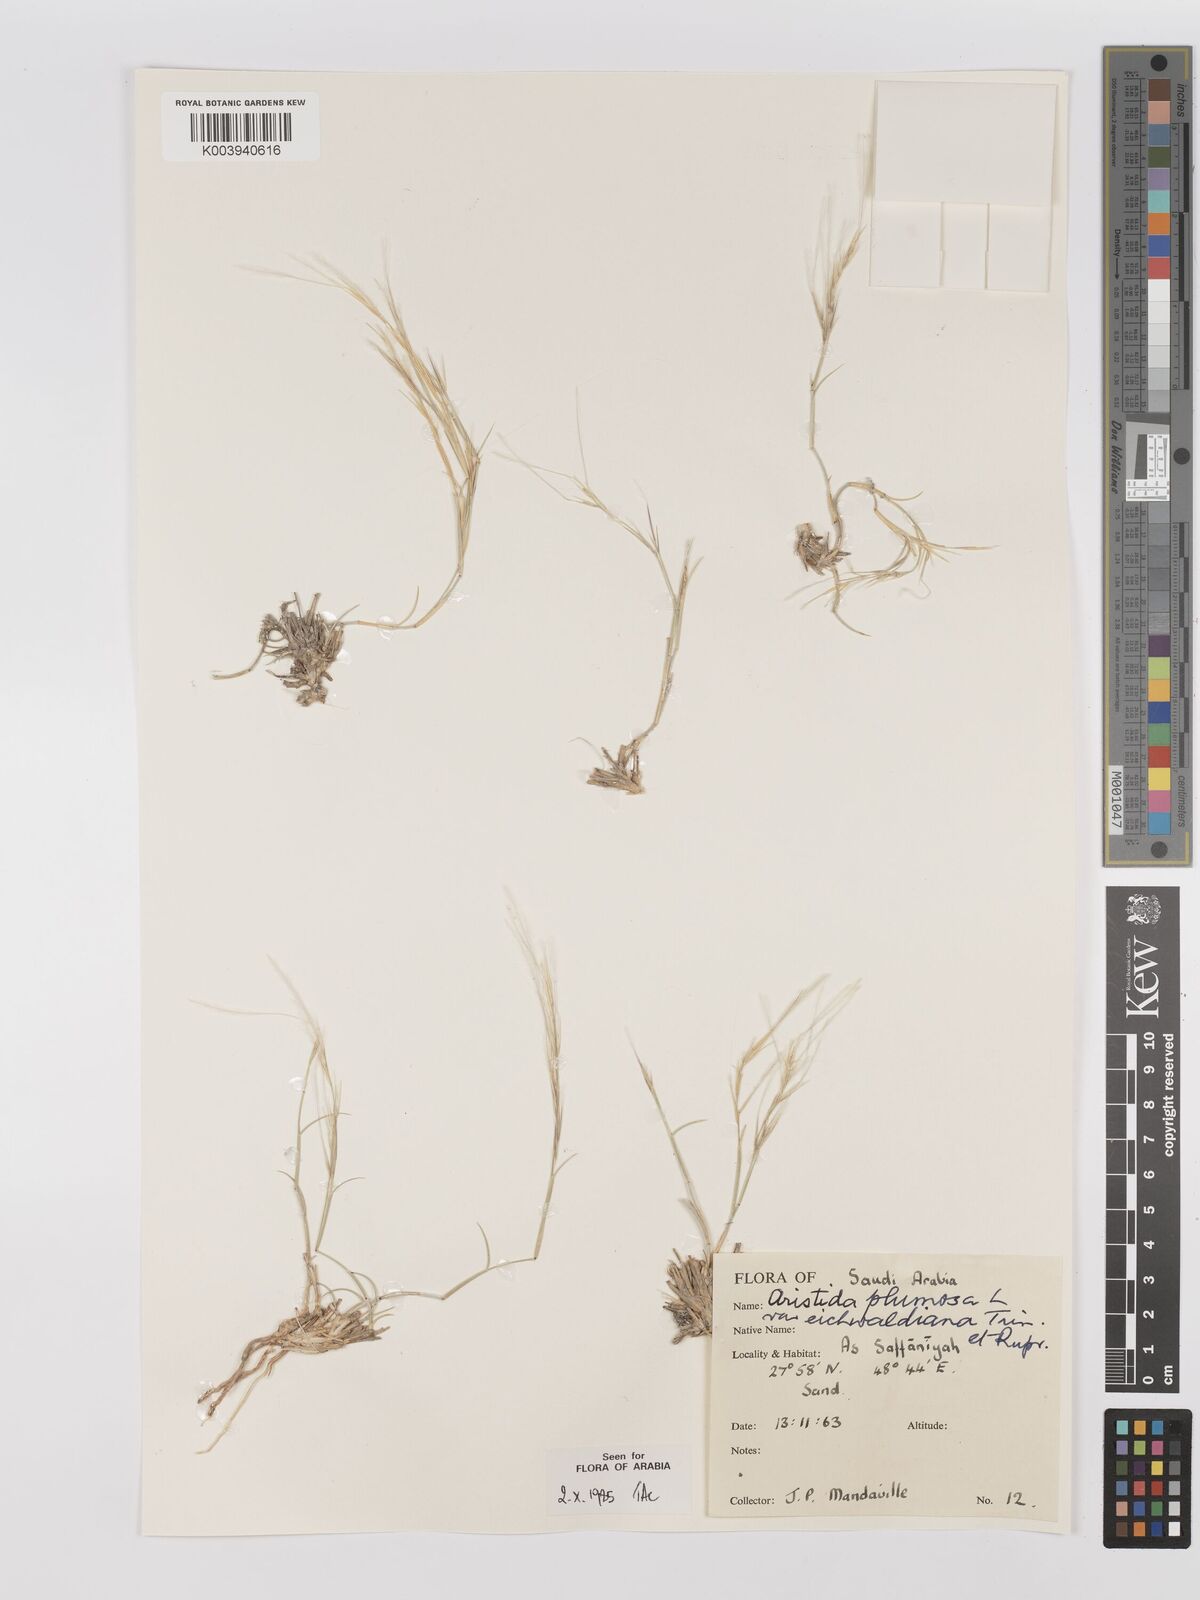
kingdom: Plantae
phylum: Tracheophyta
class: Liliopsida
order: Poales
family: Poaceae
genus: Stipagrostis
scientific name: Stipagrostis plumosa
